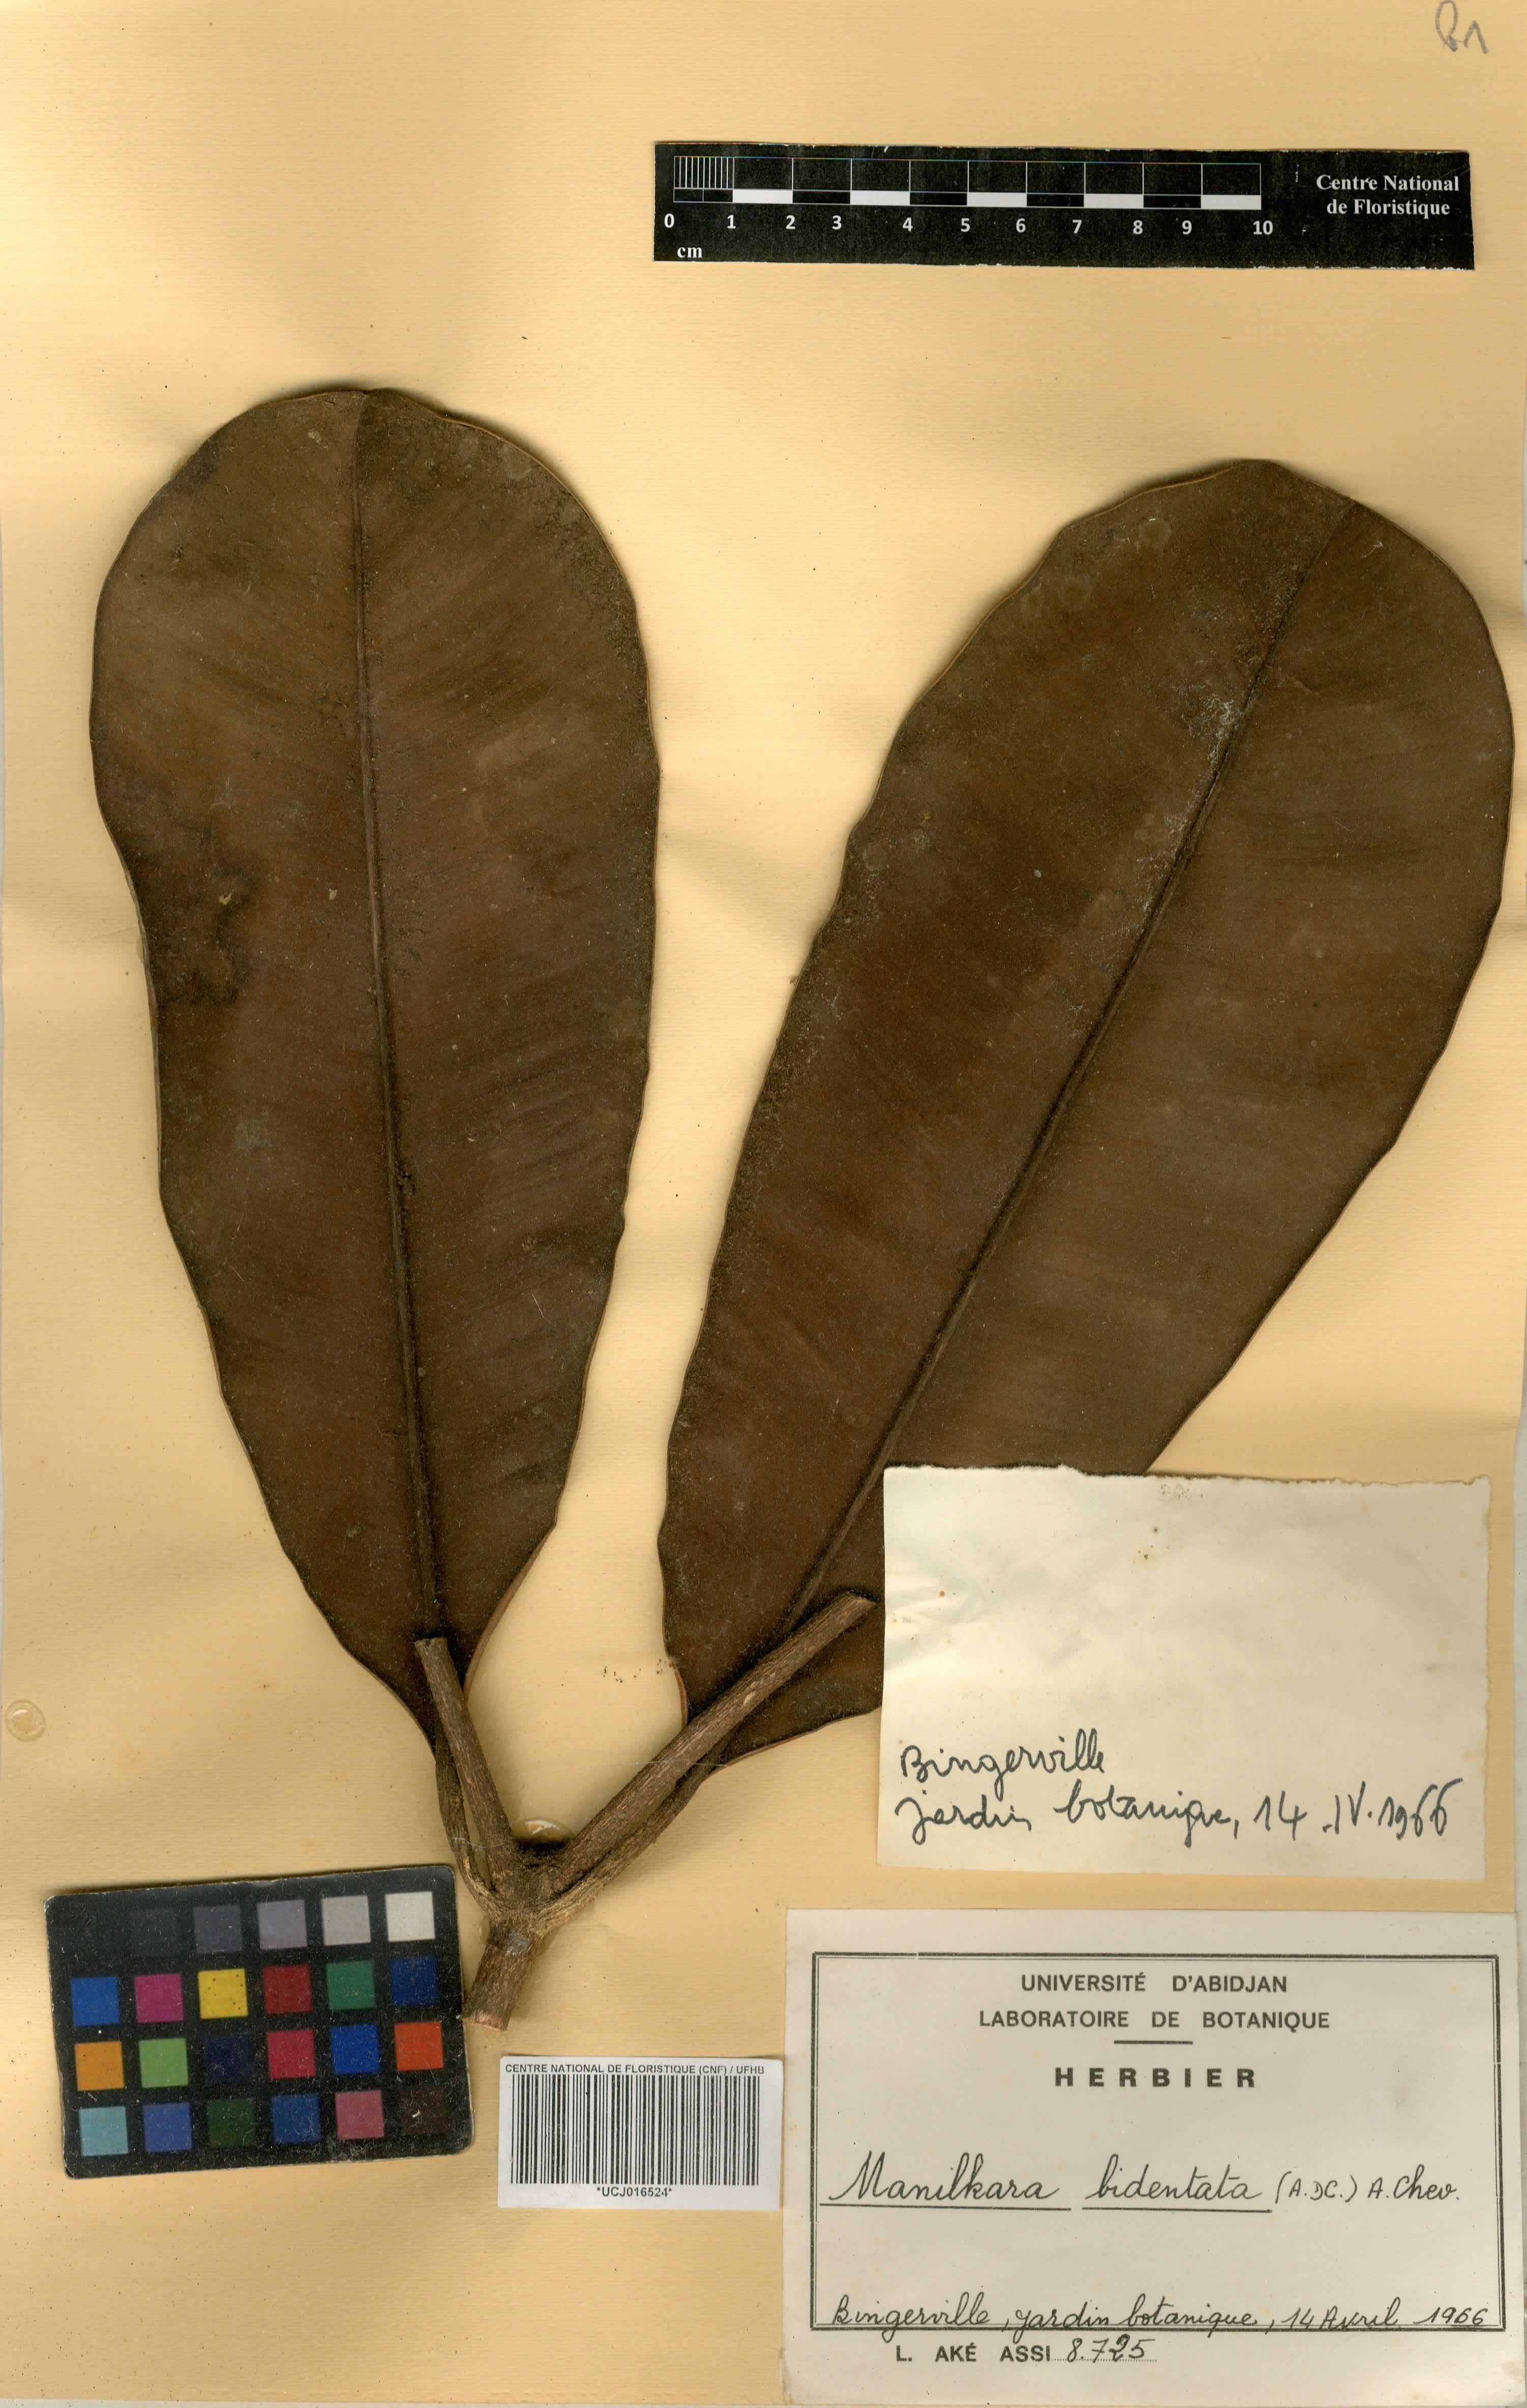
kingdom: Plantae
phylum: Tracheophyta
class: Magnoliopsida
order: Ericales
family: Sapotaceae
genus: Manilkara
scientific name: Manilkara bidentata
